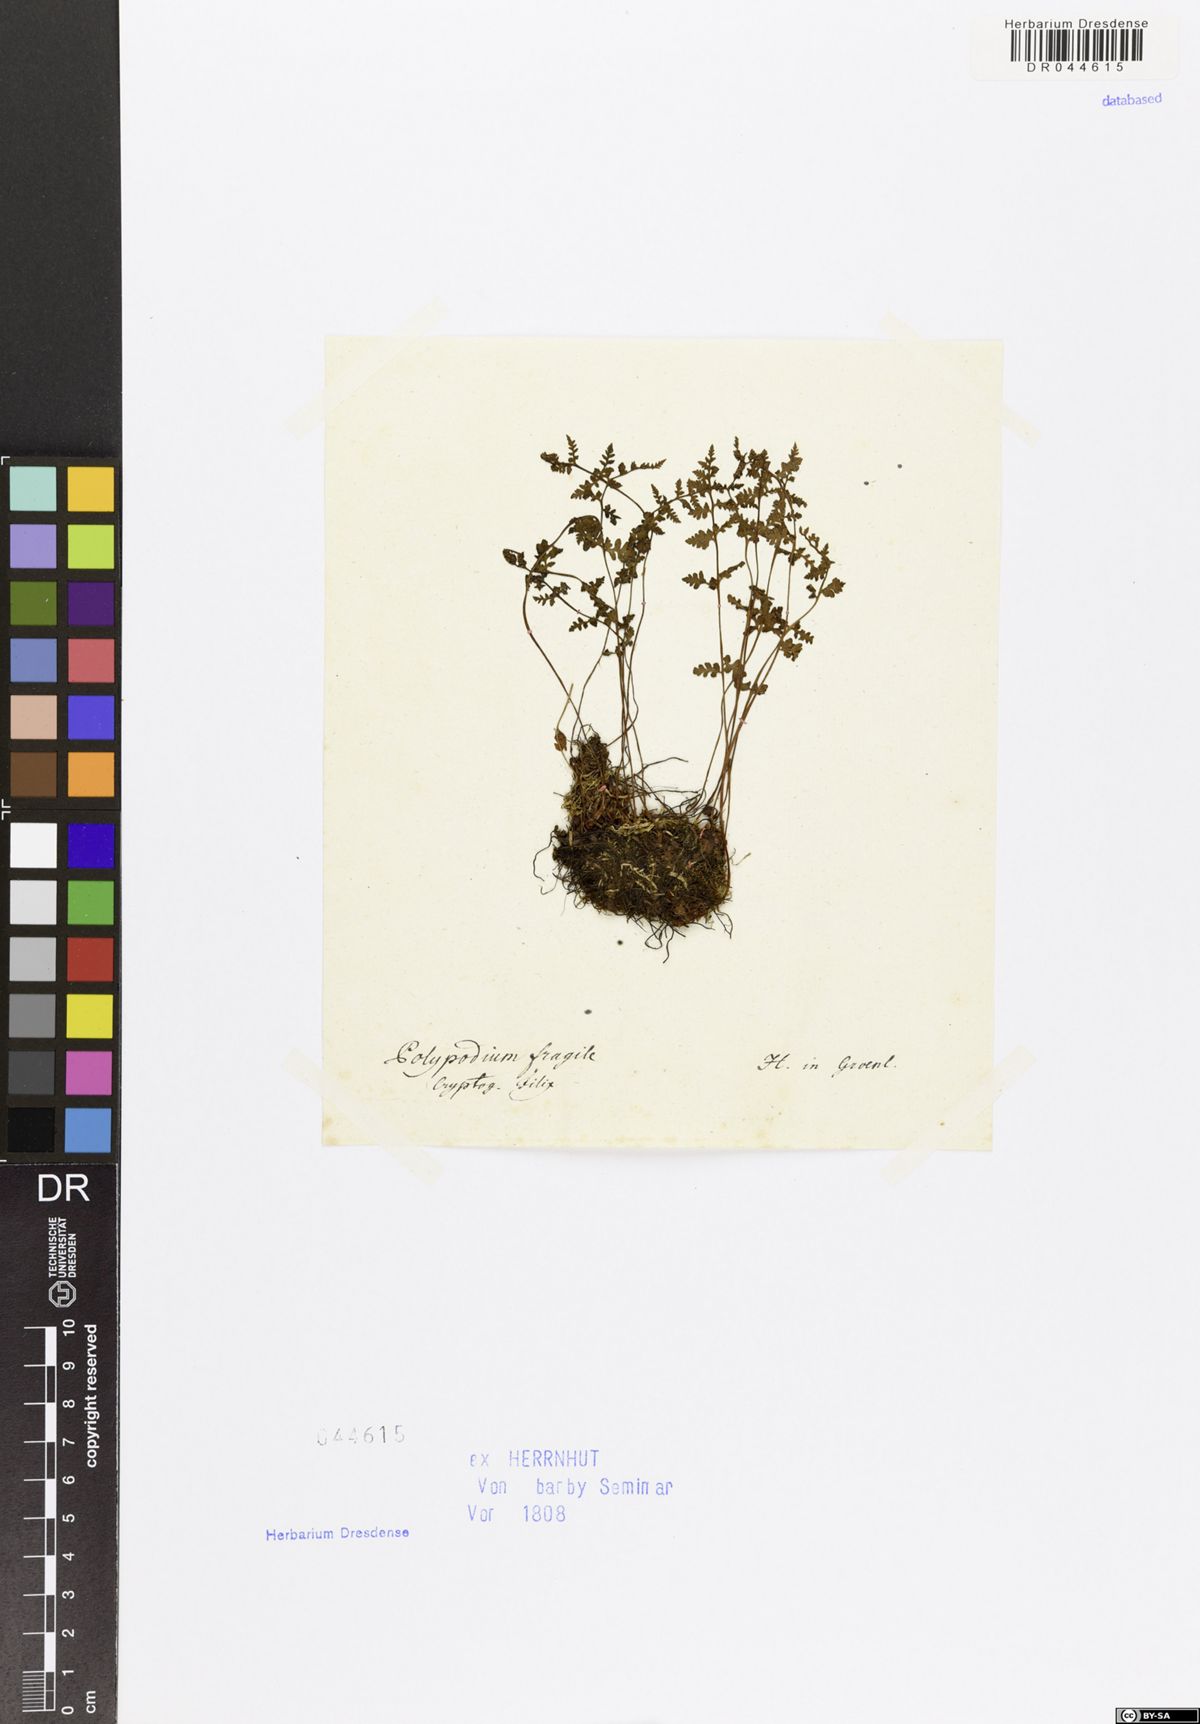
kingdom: Plantae
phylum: Tracheophyta
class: Polypodiopsida
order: Polypodiales
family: Cystopteridaceae
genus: Cystopteris
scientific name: Cystopteris fragilis
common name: Brittle bladder fern
